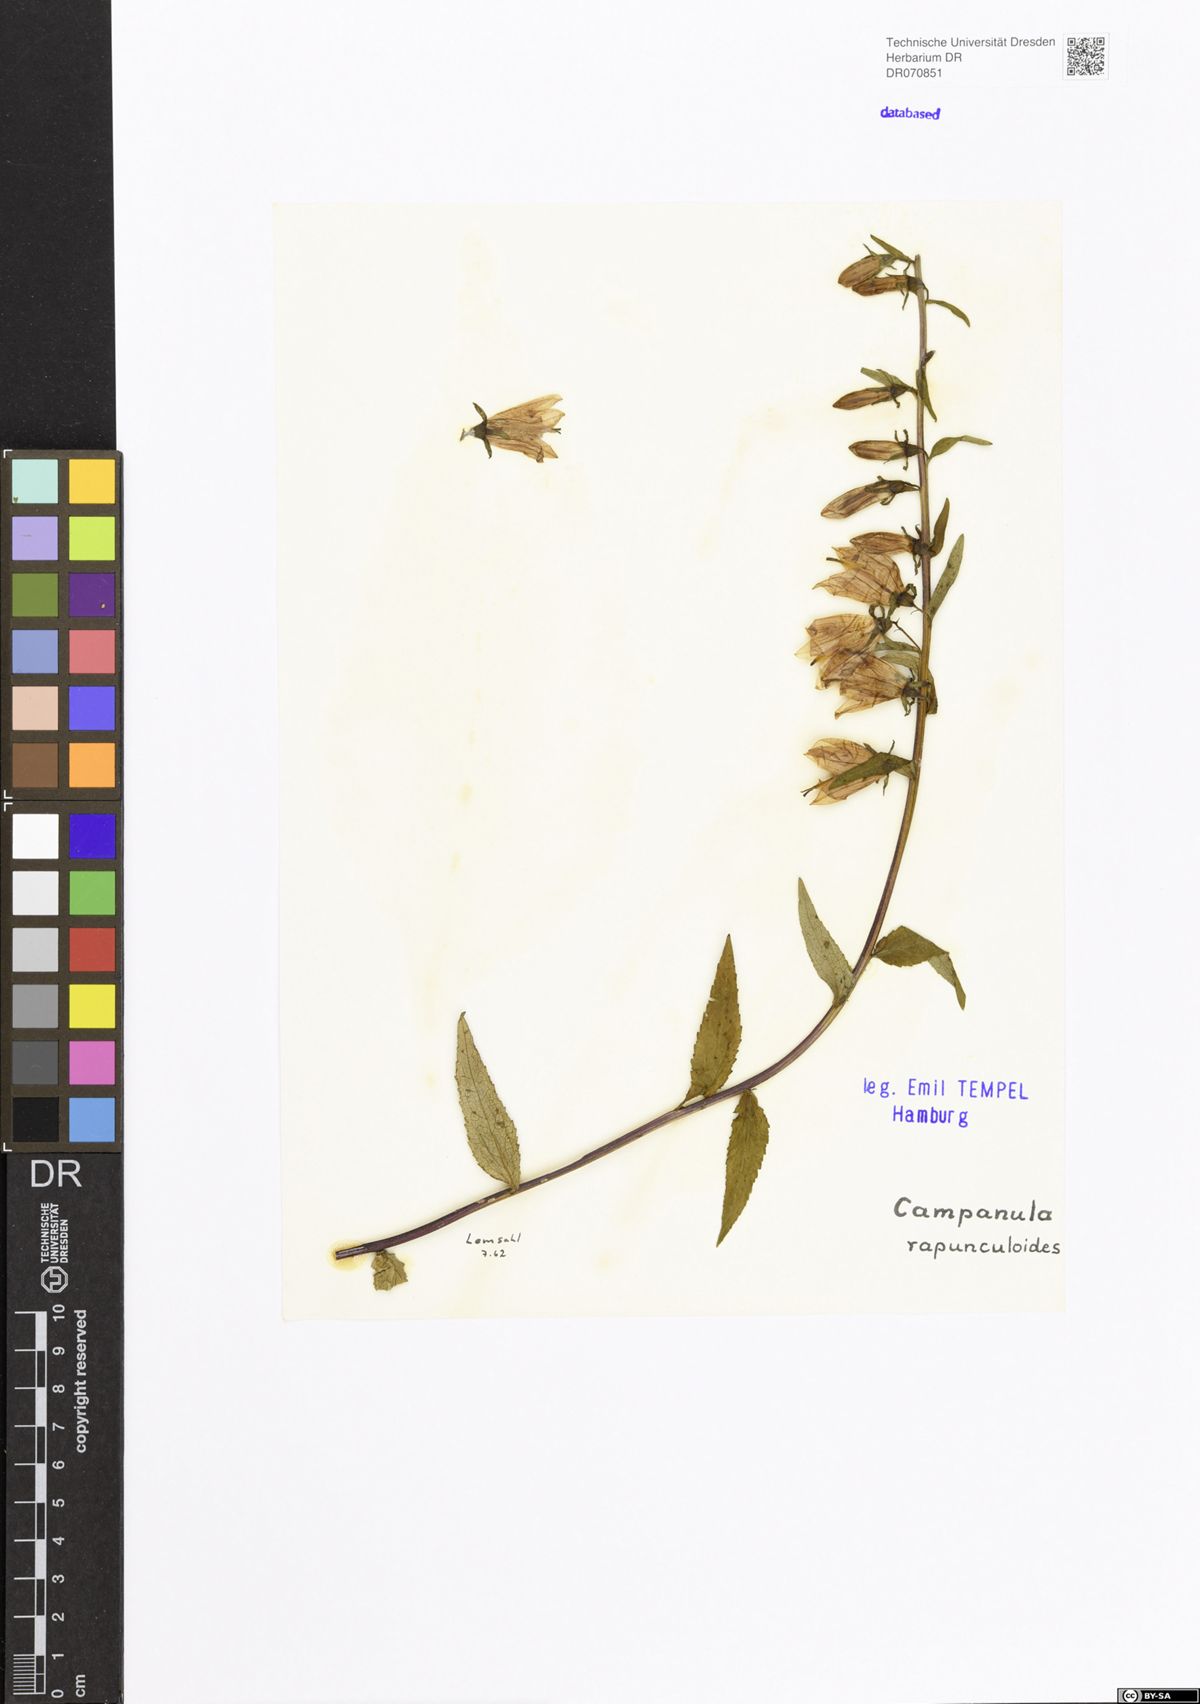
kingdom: Plantae
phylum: Tracheophyta
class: Magnoliopsida
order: Asterales
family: Campanulaceae
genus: Campanula
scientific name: Campanula rapunculoides
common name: Creeping bellflower
